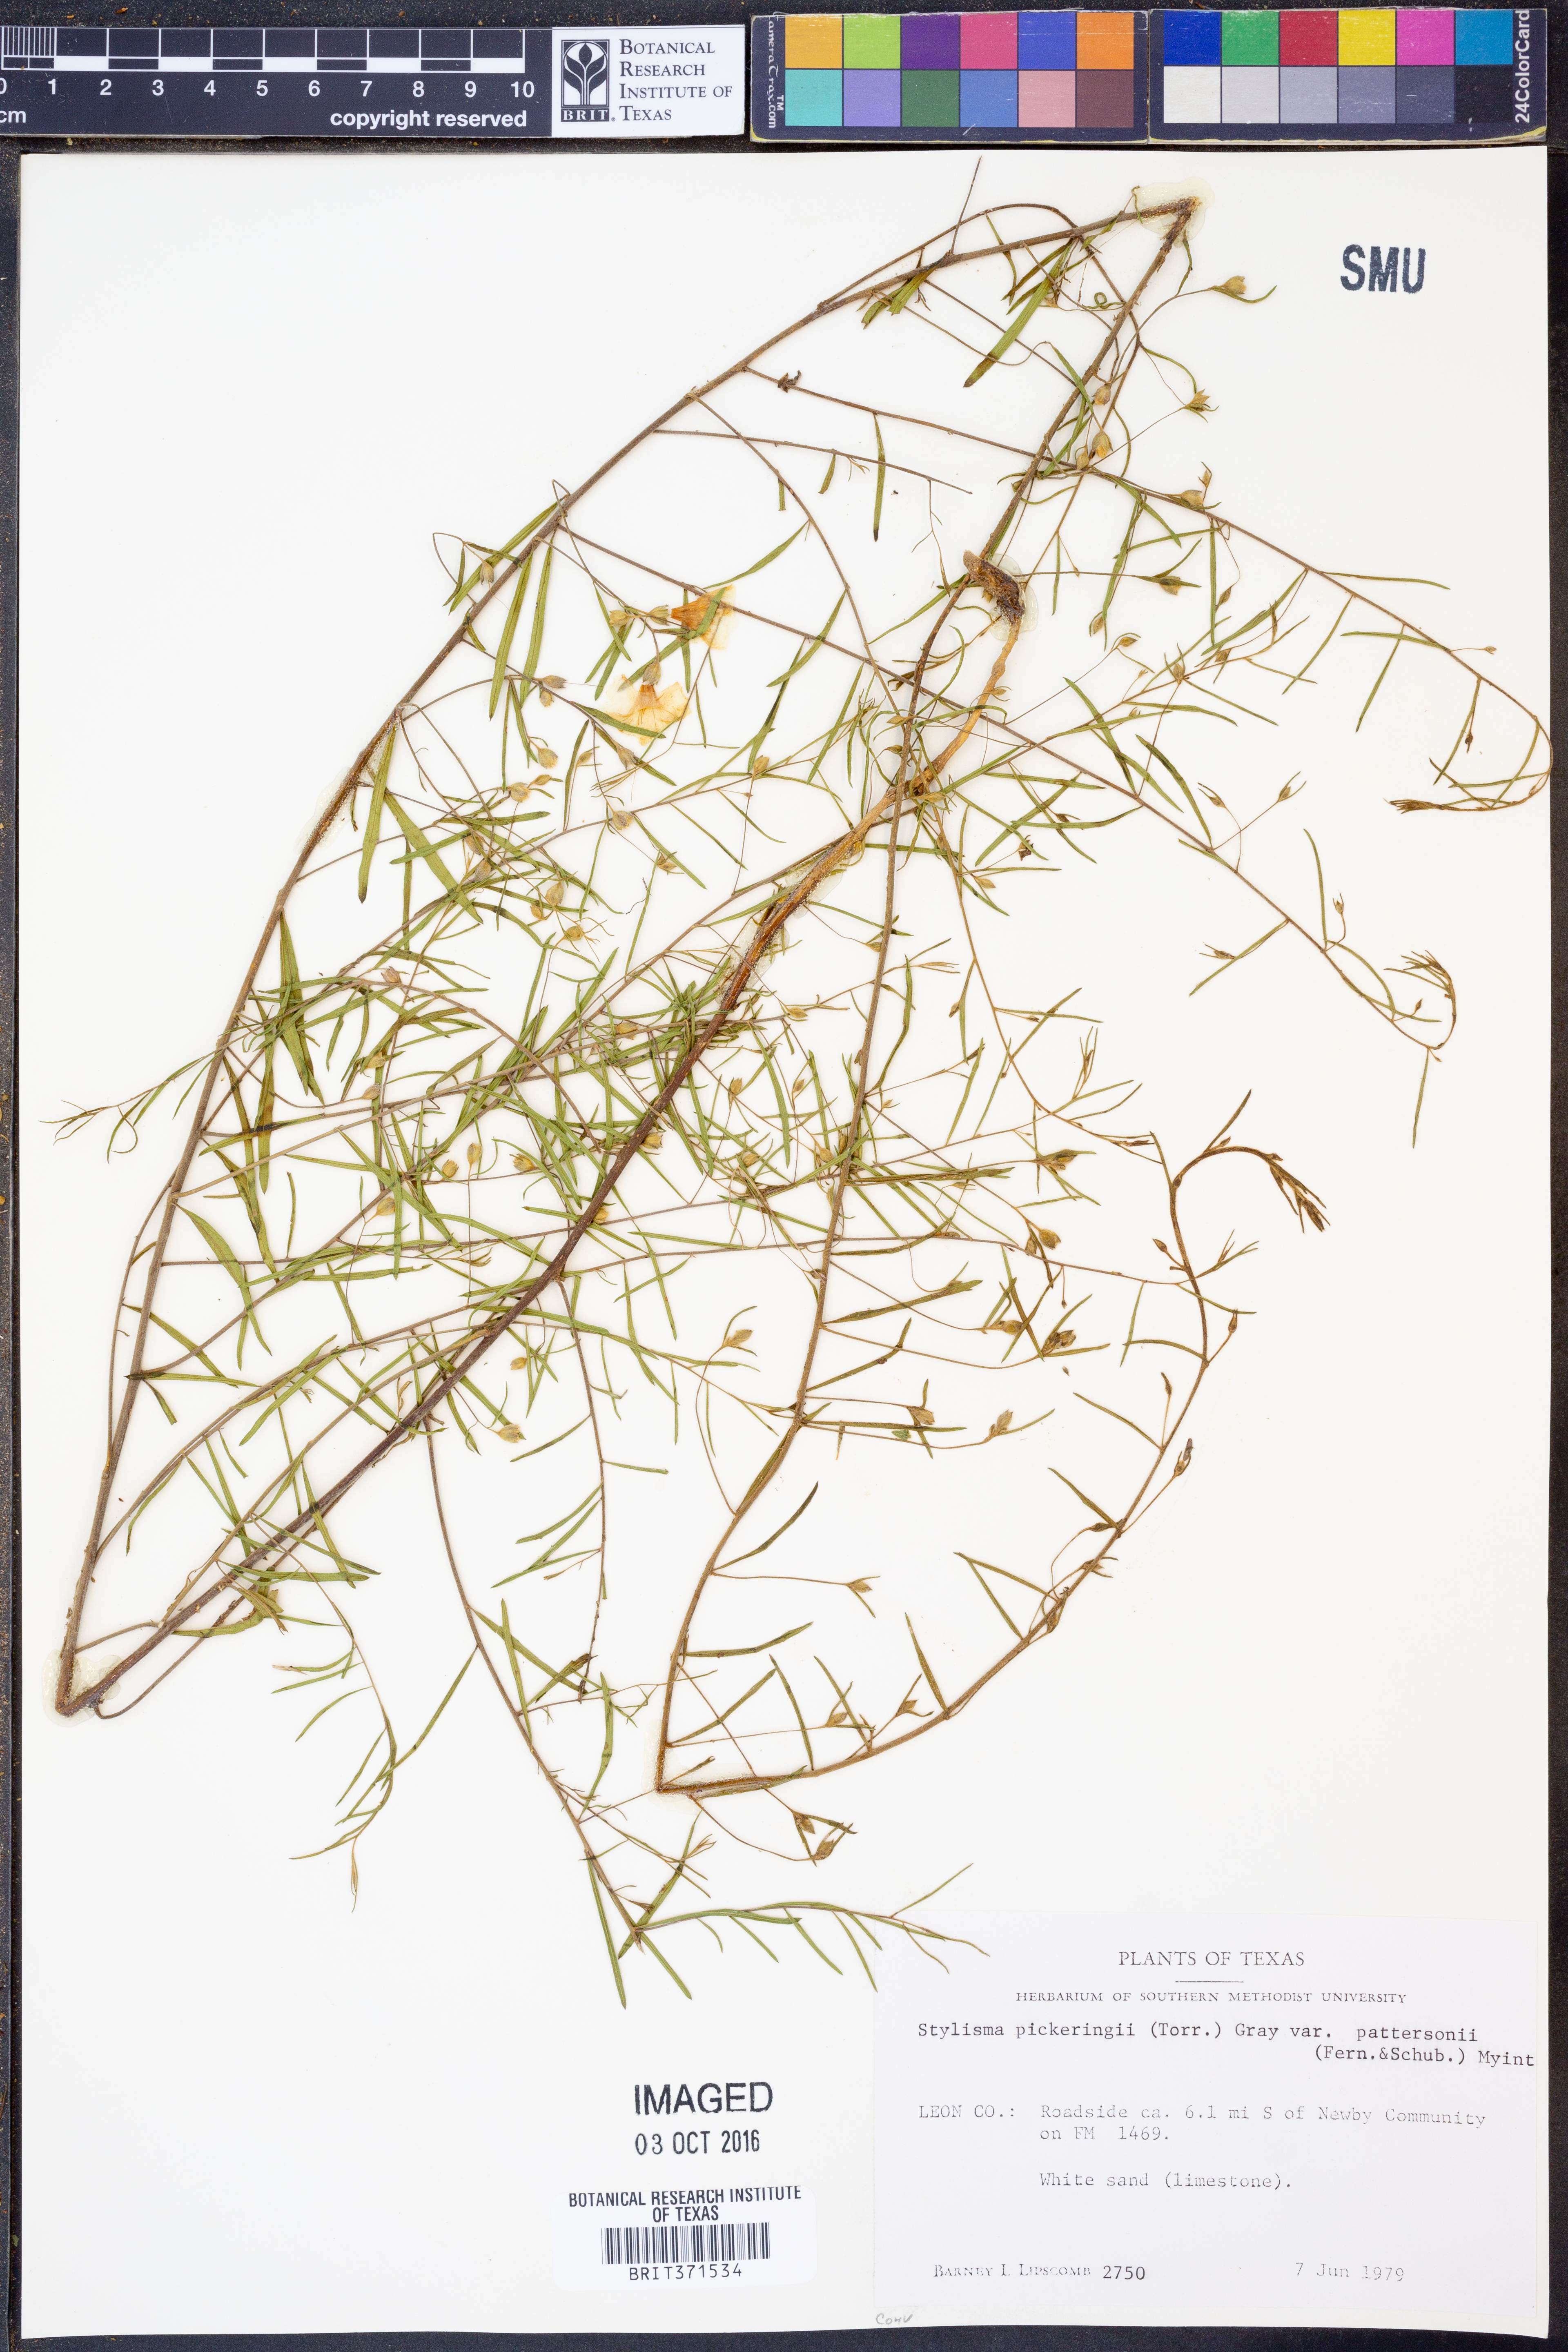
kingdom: Plantae
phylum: Tracheophyta
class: Magnoliopsida
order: Solanales
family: Convolvulaceae
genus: Stylisma
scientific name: Stylisma pickeringii
